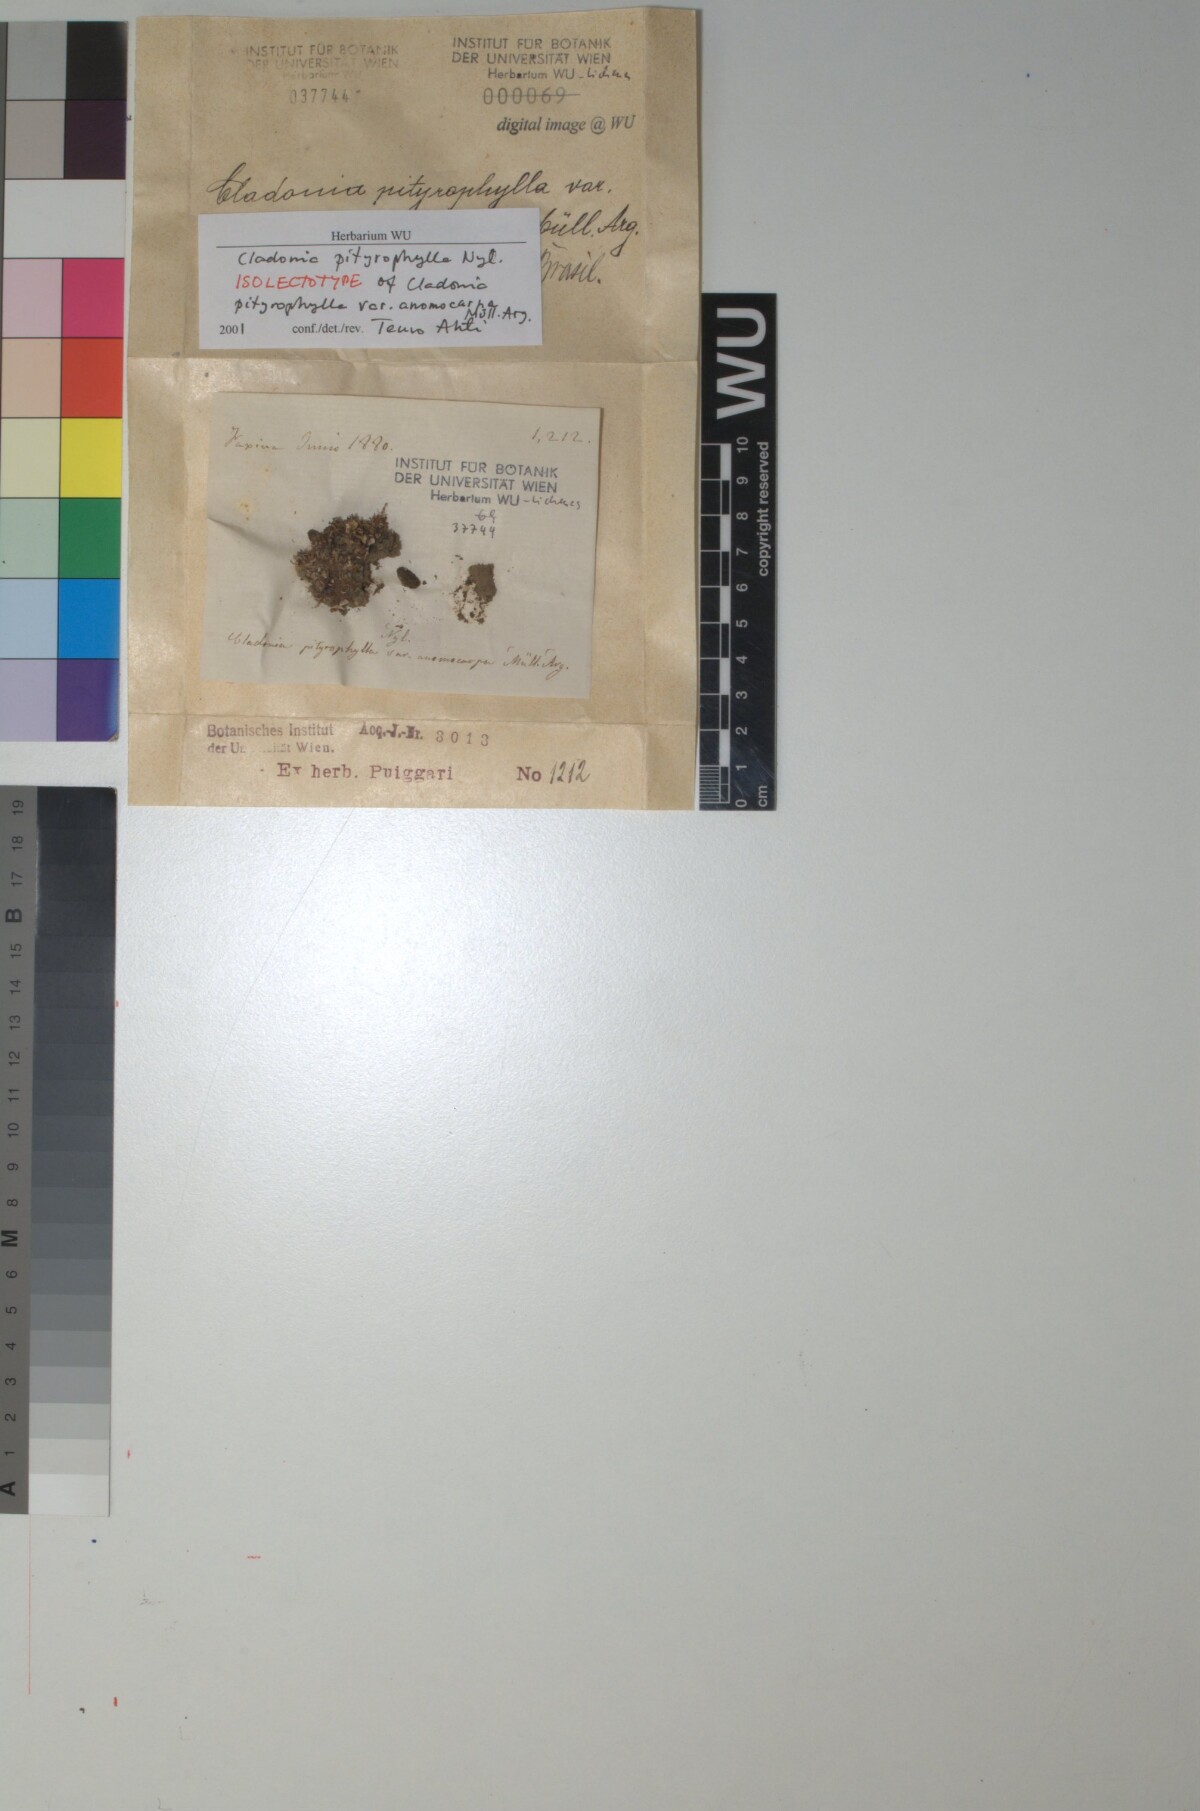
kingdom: Fungi
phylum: Ascomycota
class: Lecanoromycetes
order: Lecanorales
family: Cladoniaceae
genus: Cladonia
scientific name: Cladonia pityrophylla
